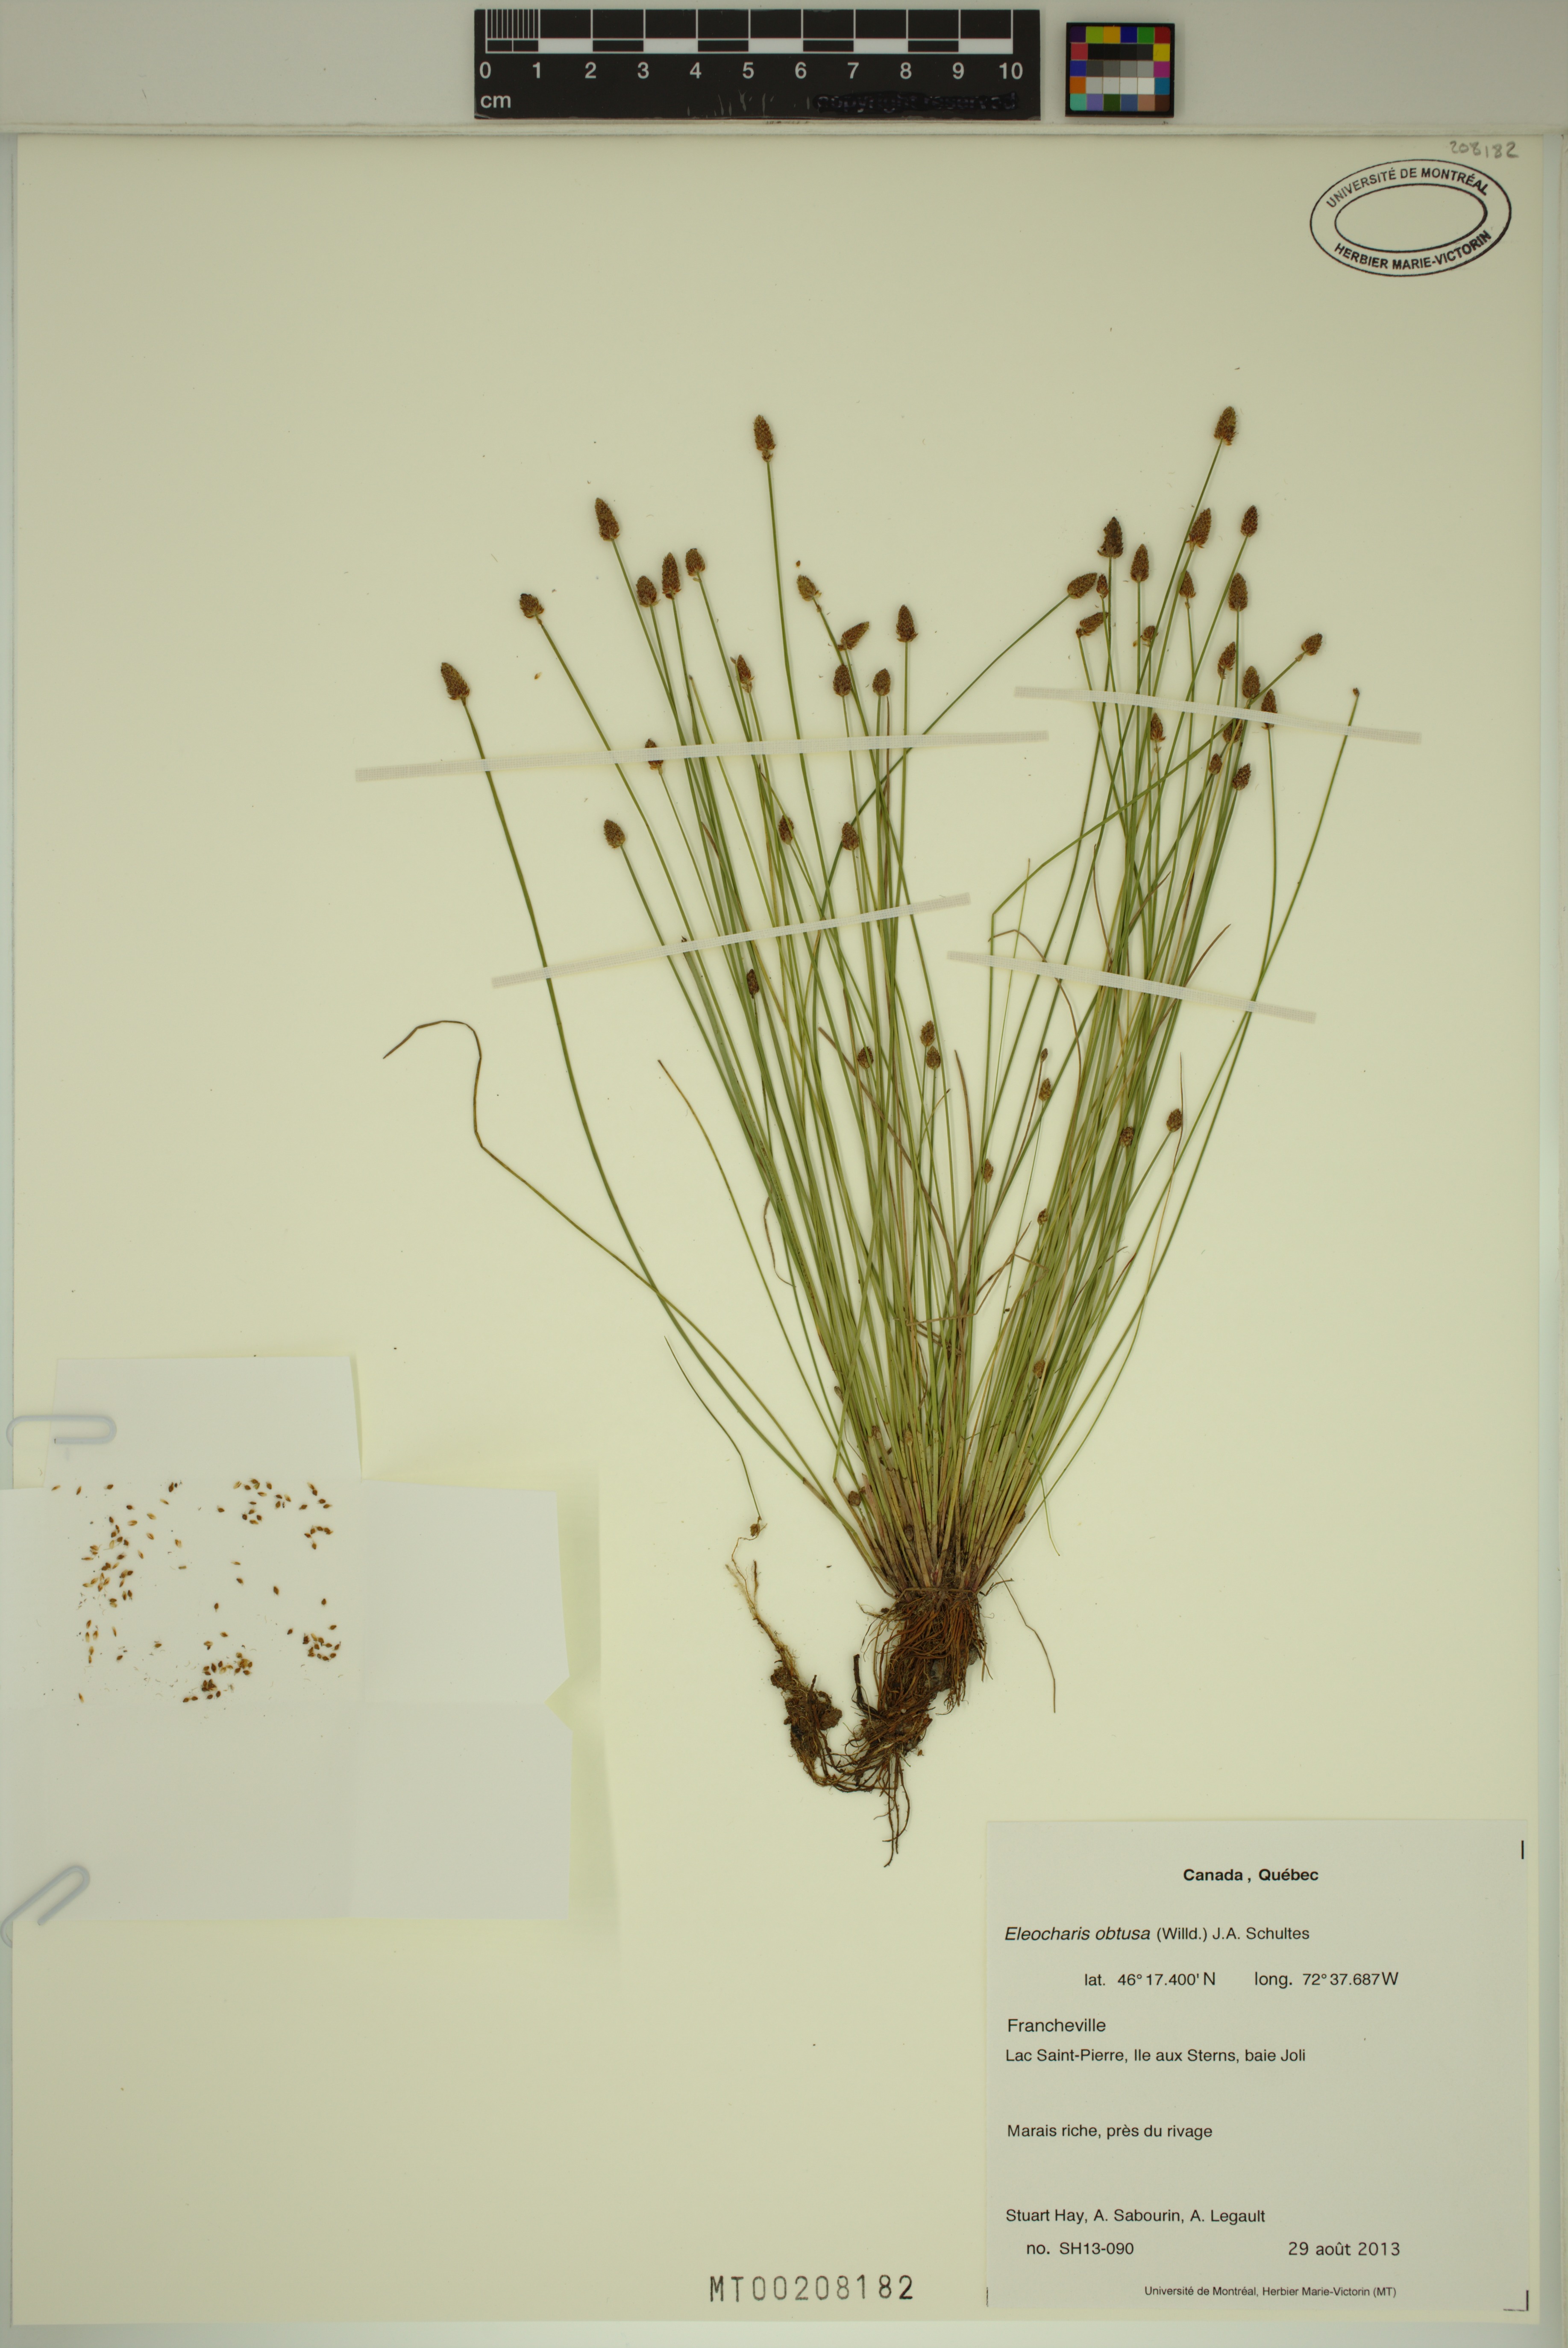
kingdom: Plantae
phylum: Tracheophyta
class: Liliopsida
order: Poales
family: Cyperaceae
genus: Eleocharis
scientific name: Eleocharis obtusa
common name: Blunt spikerush
